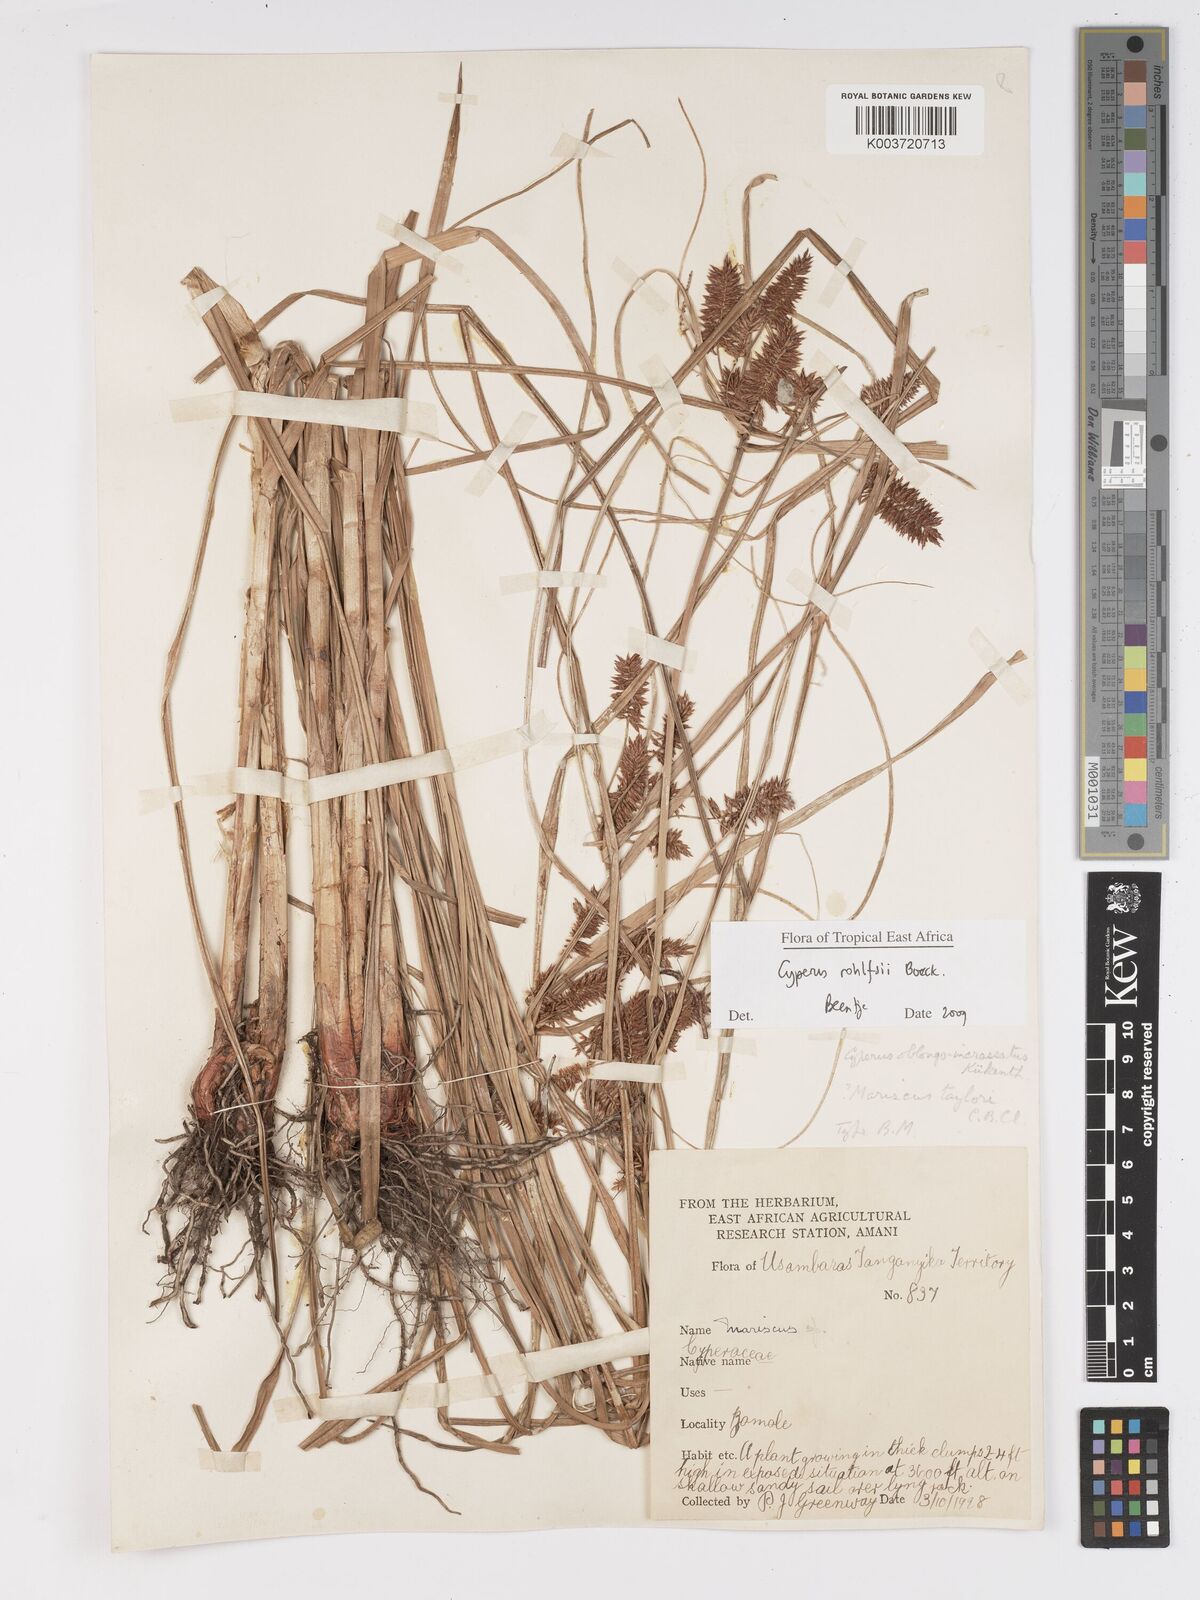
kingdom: Plantae
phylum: Tracheophyta
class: Liliopsida
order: Poales
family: Cyperaceae
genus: Cyperus
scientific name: Cyperus rohlfsii
